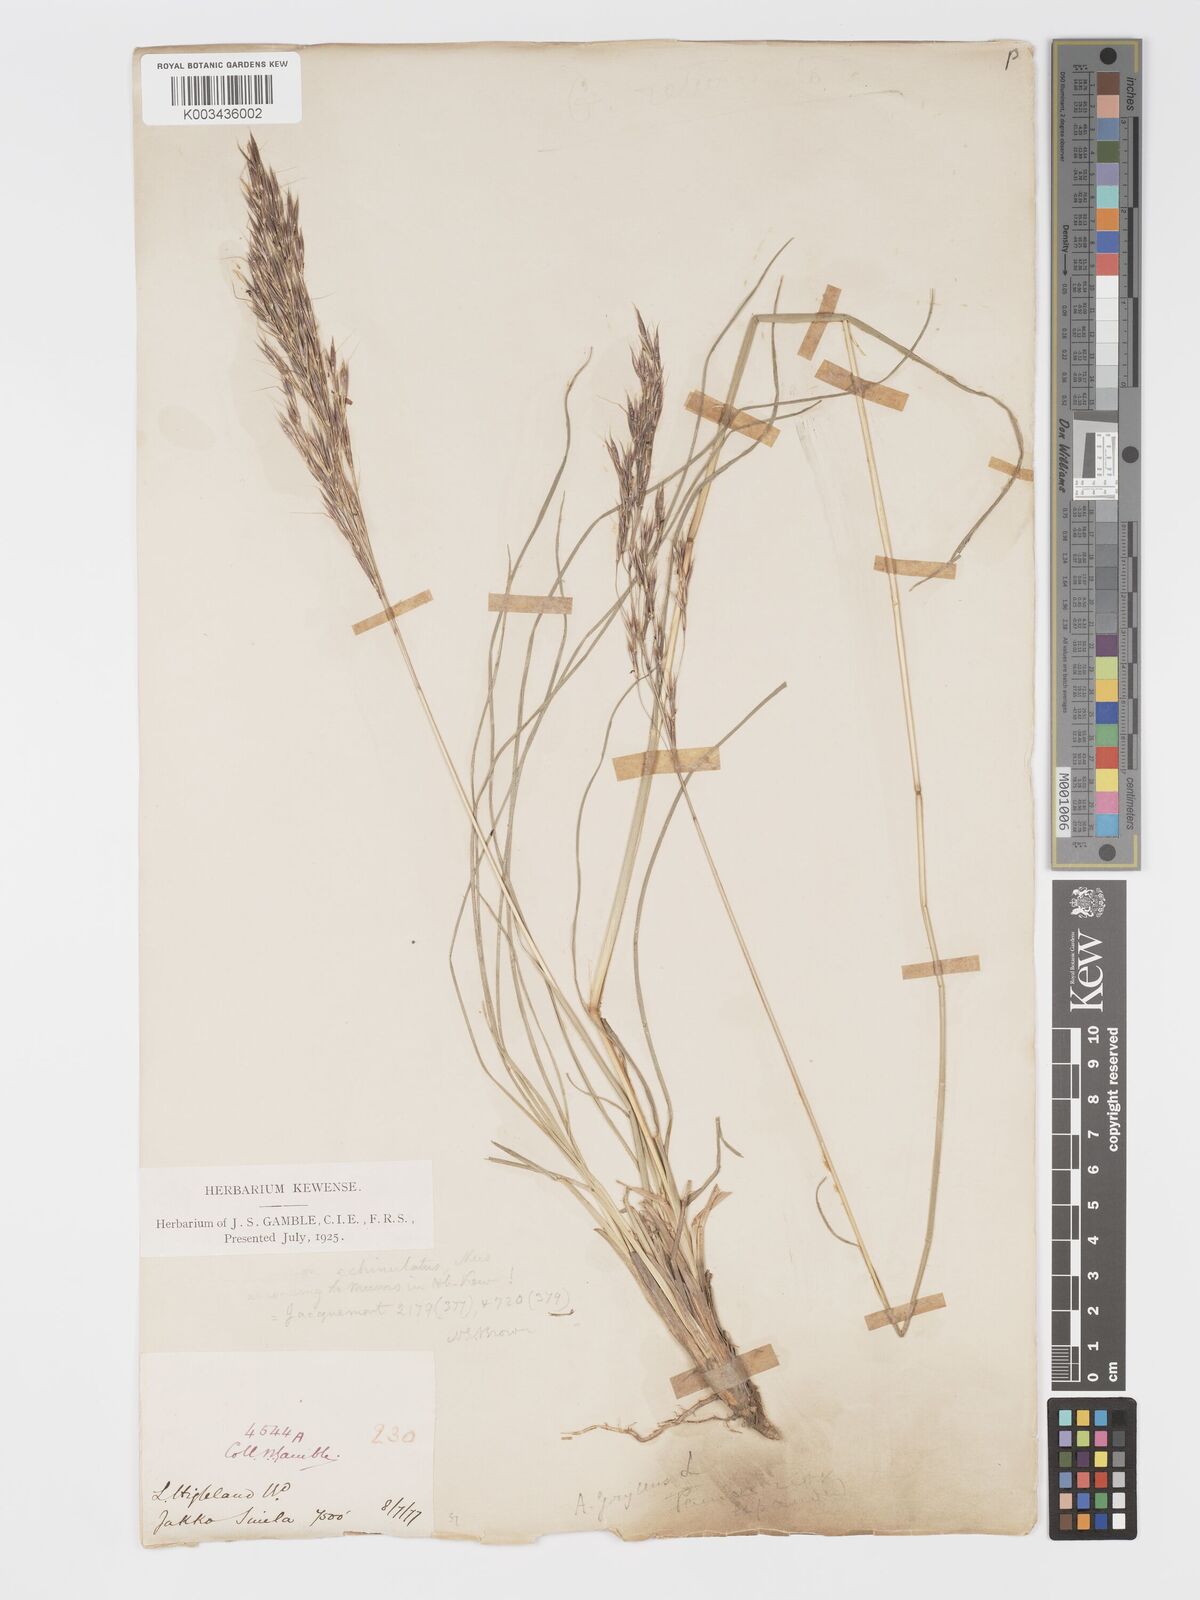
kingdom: Plantae
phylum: Tracheophyta
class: Liliopsida
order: Poales
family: Poaceae
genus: Chrysopogon
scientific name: Chrysopogon gryllus
